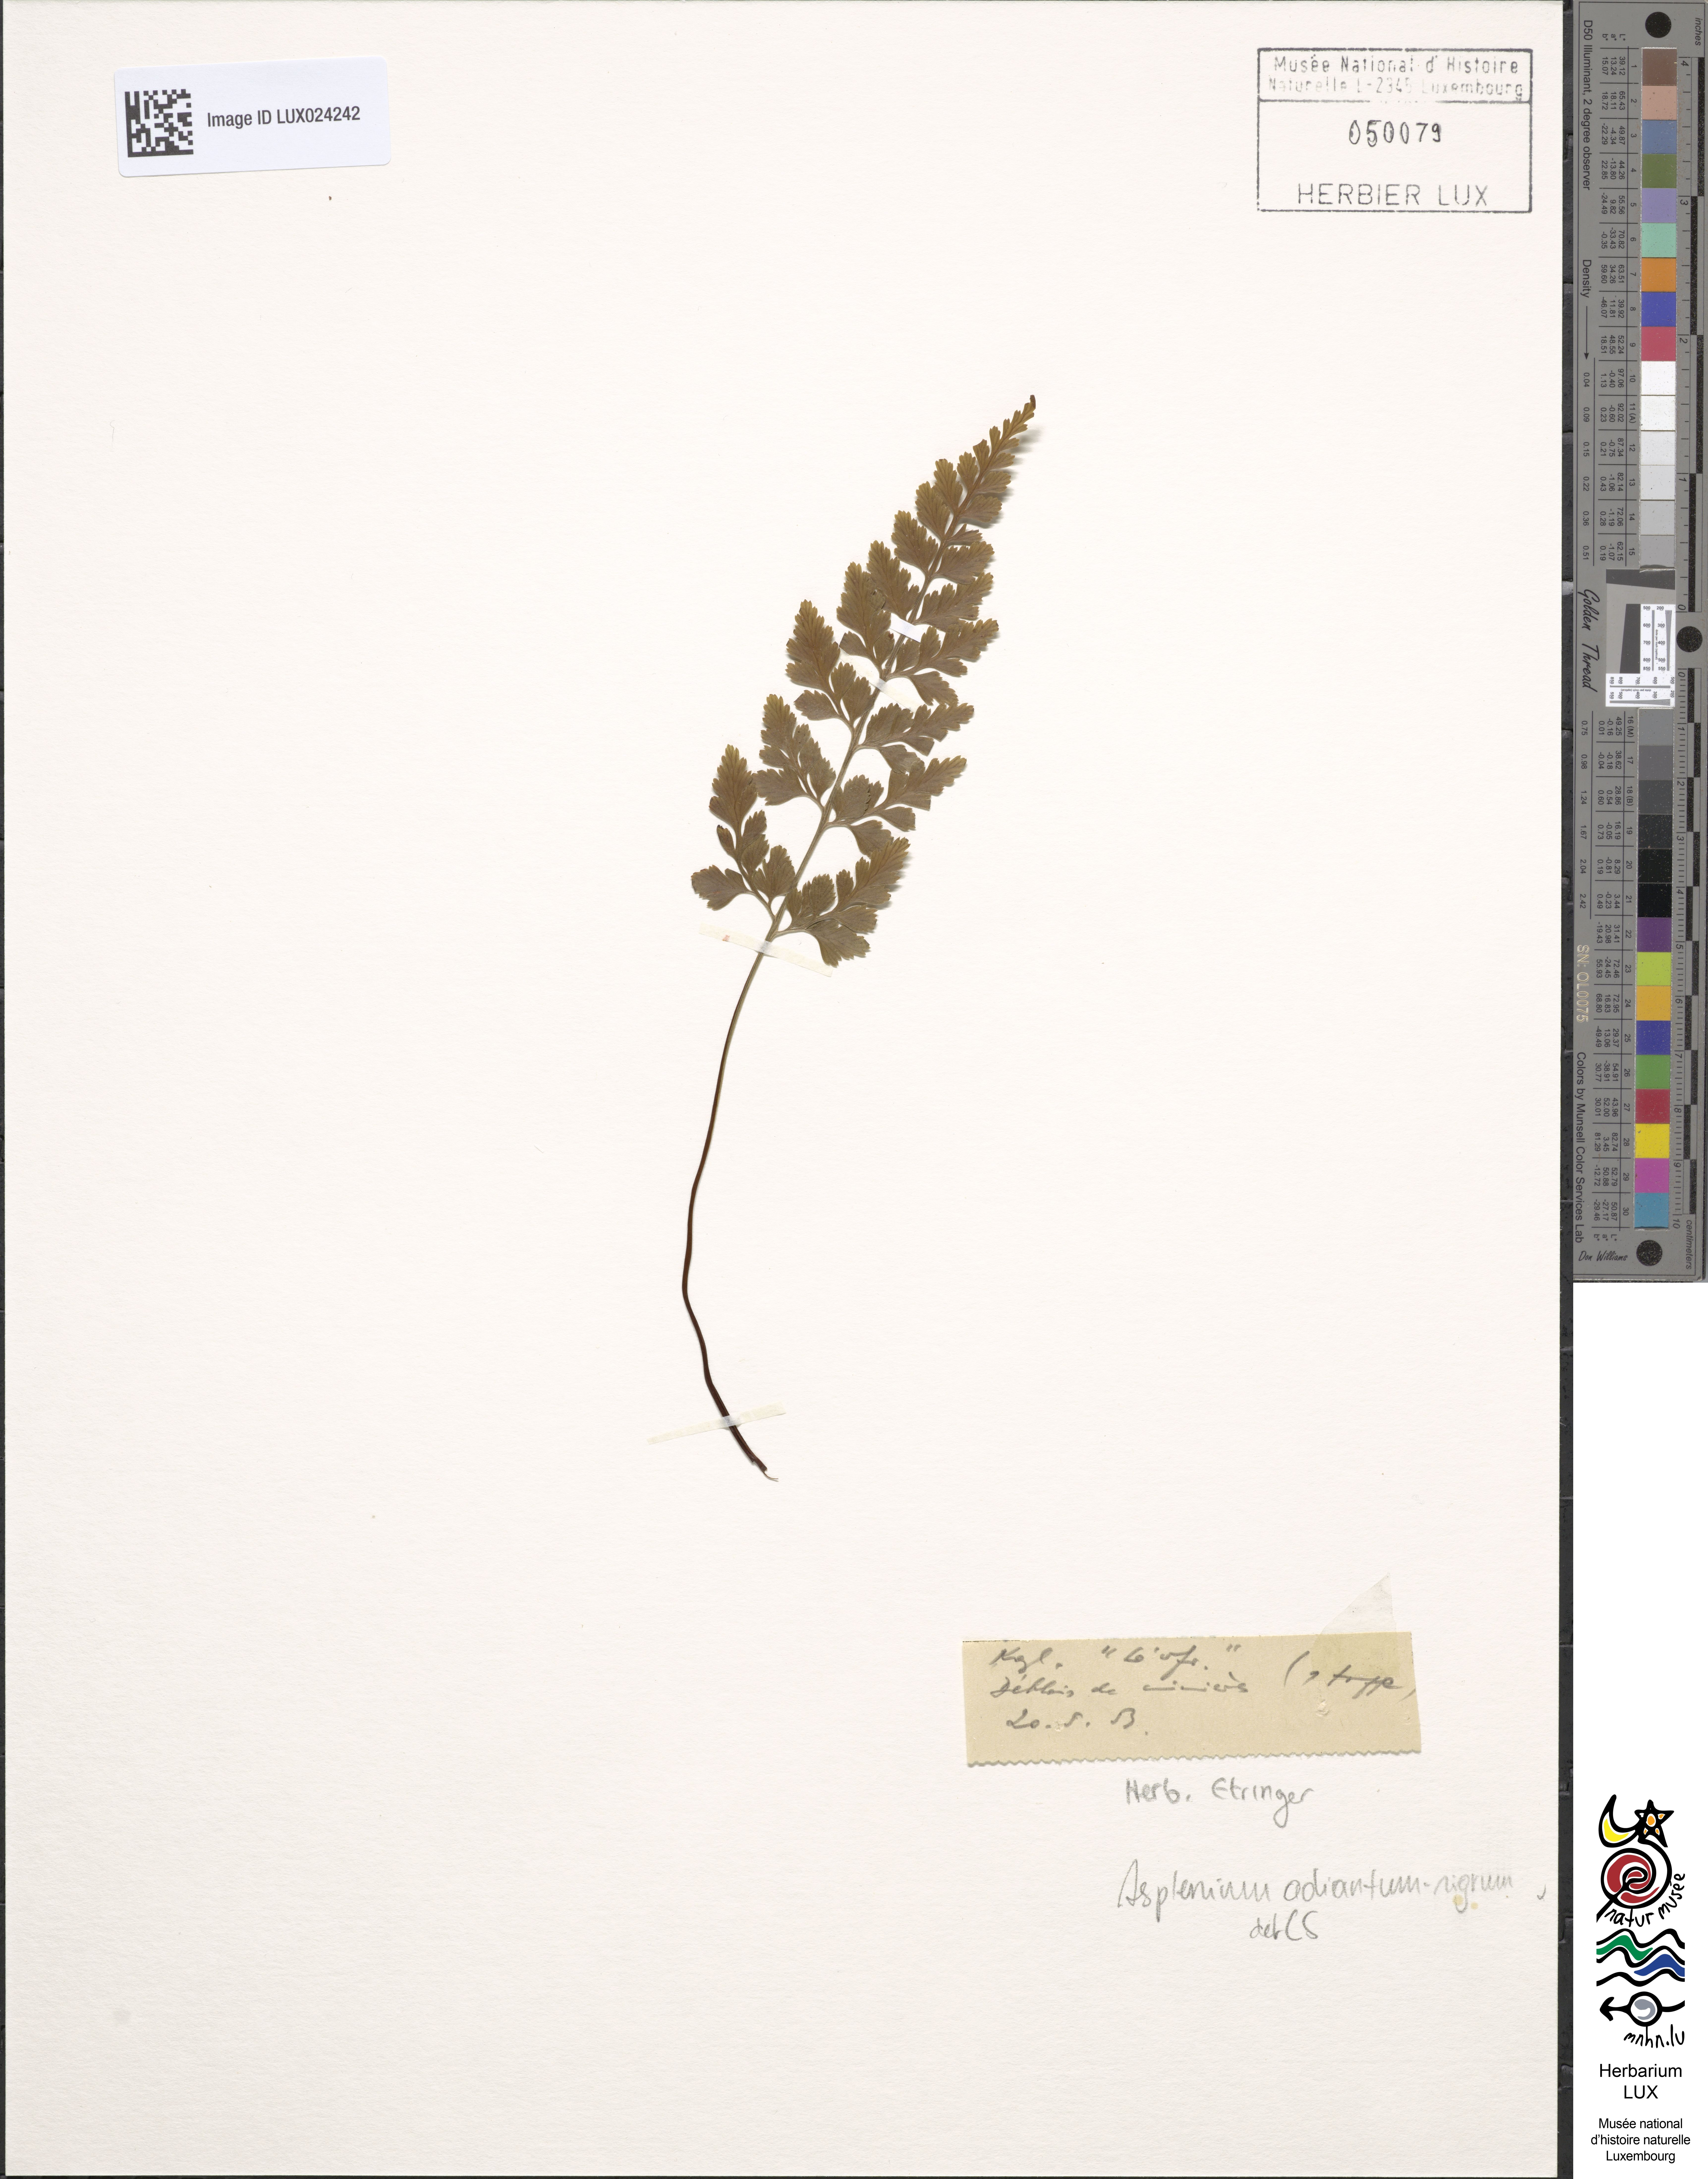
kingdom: Plantae
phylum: Tracheophyta
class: Polypodiopsida
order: Polypodiales
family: Aspleniaceae
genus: Asplenium
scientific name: Asplenium adiantum-nigrum
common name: Black spleenwort
